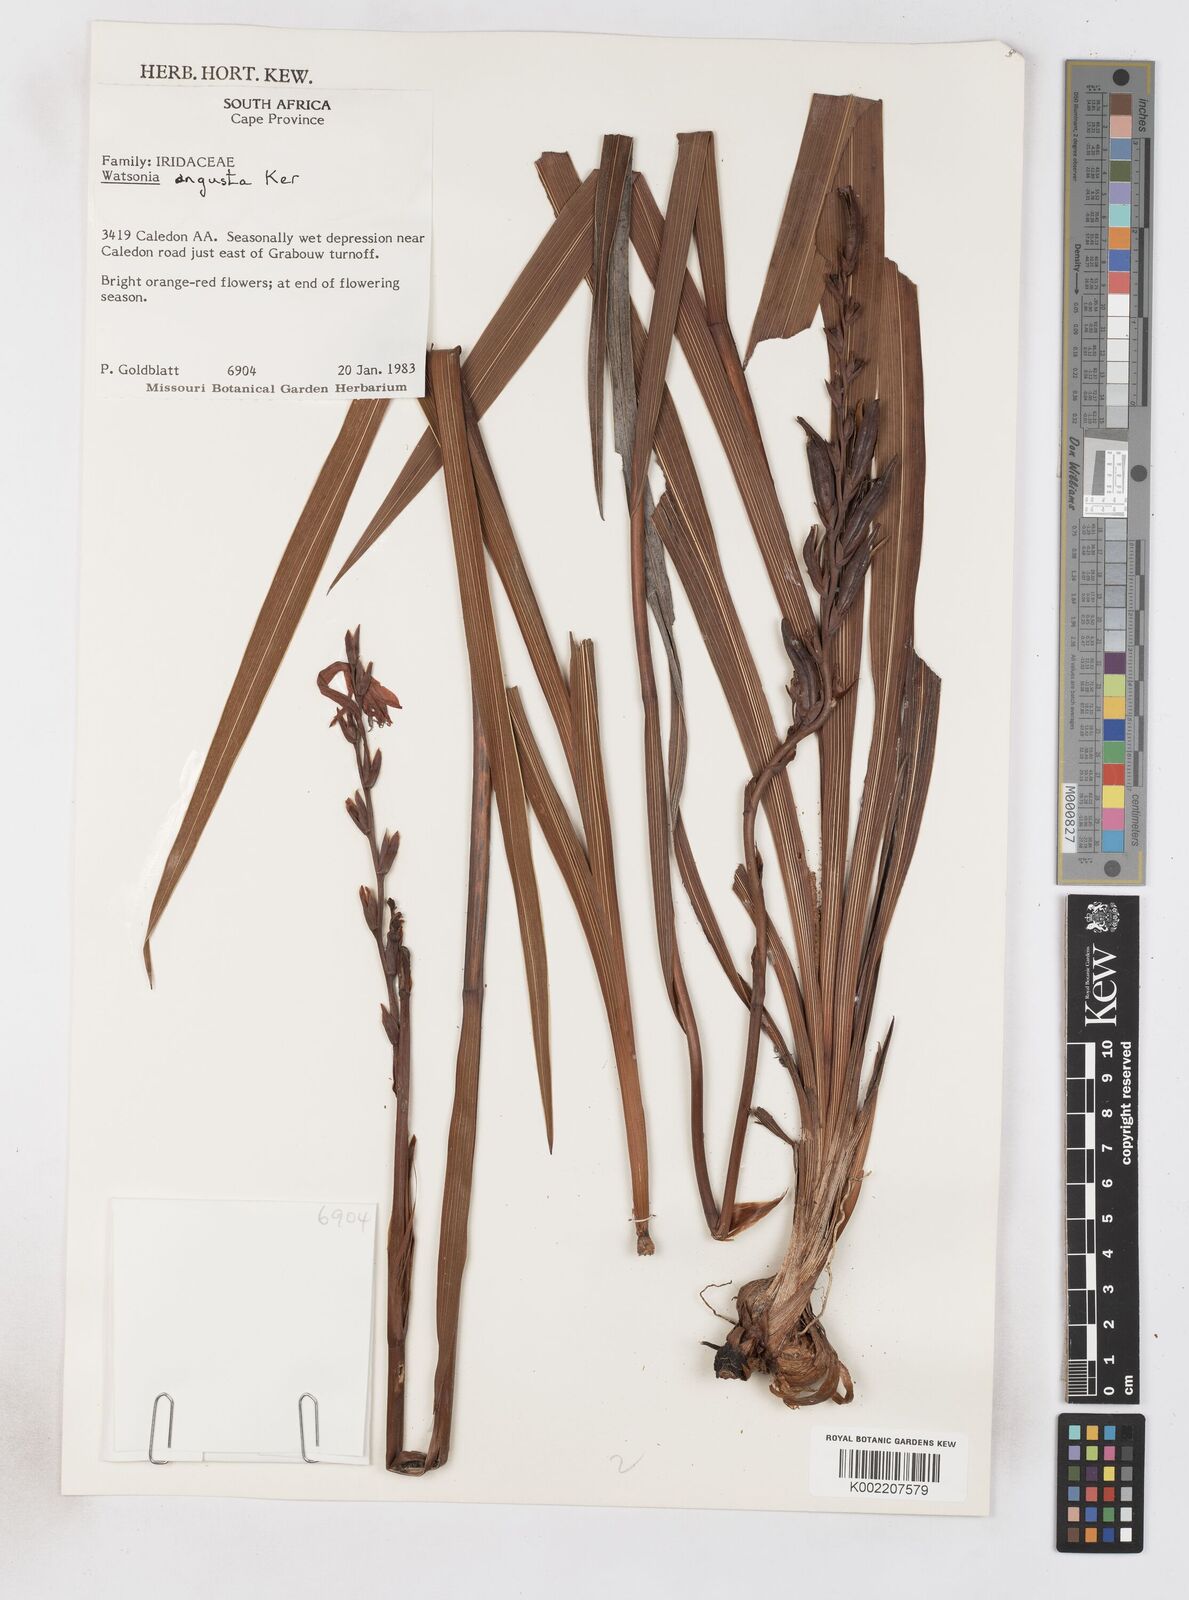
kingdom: Plantae
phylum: Tracheophyta
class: Liliopsida
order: Asparagales
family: Iridaceae
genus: Watsonia
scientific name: Watsonia angusta
